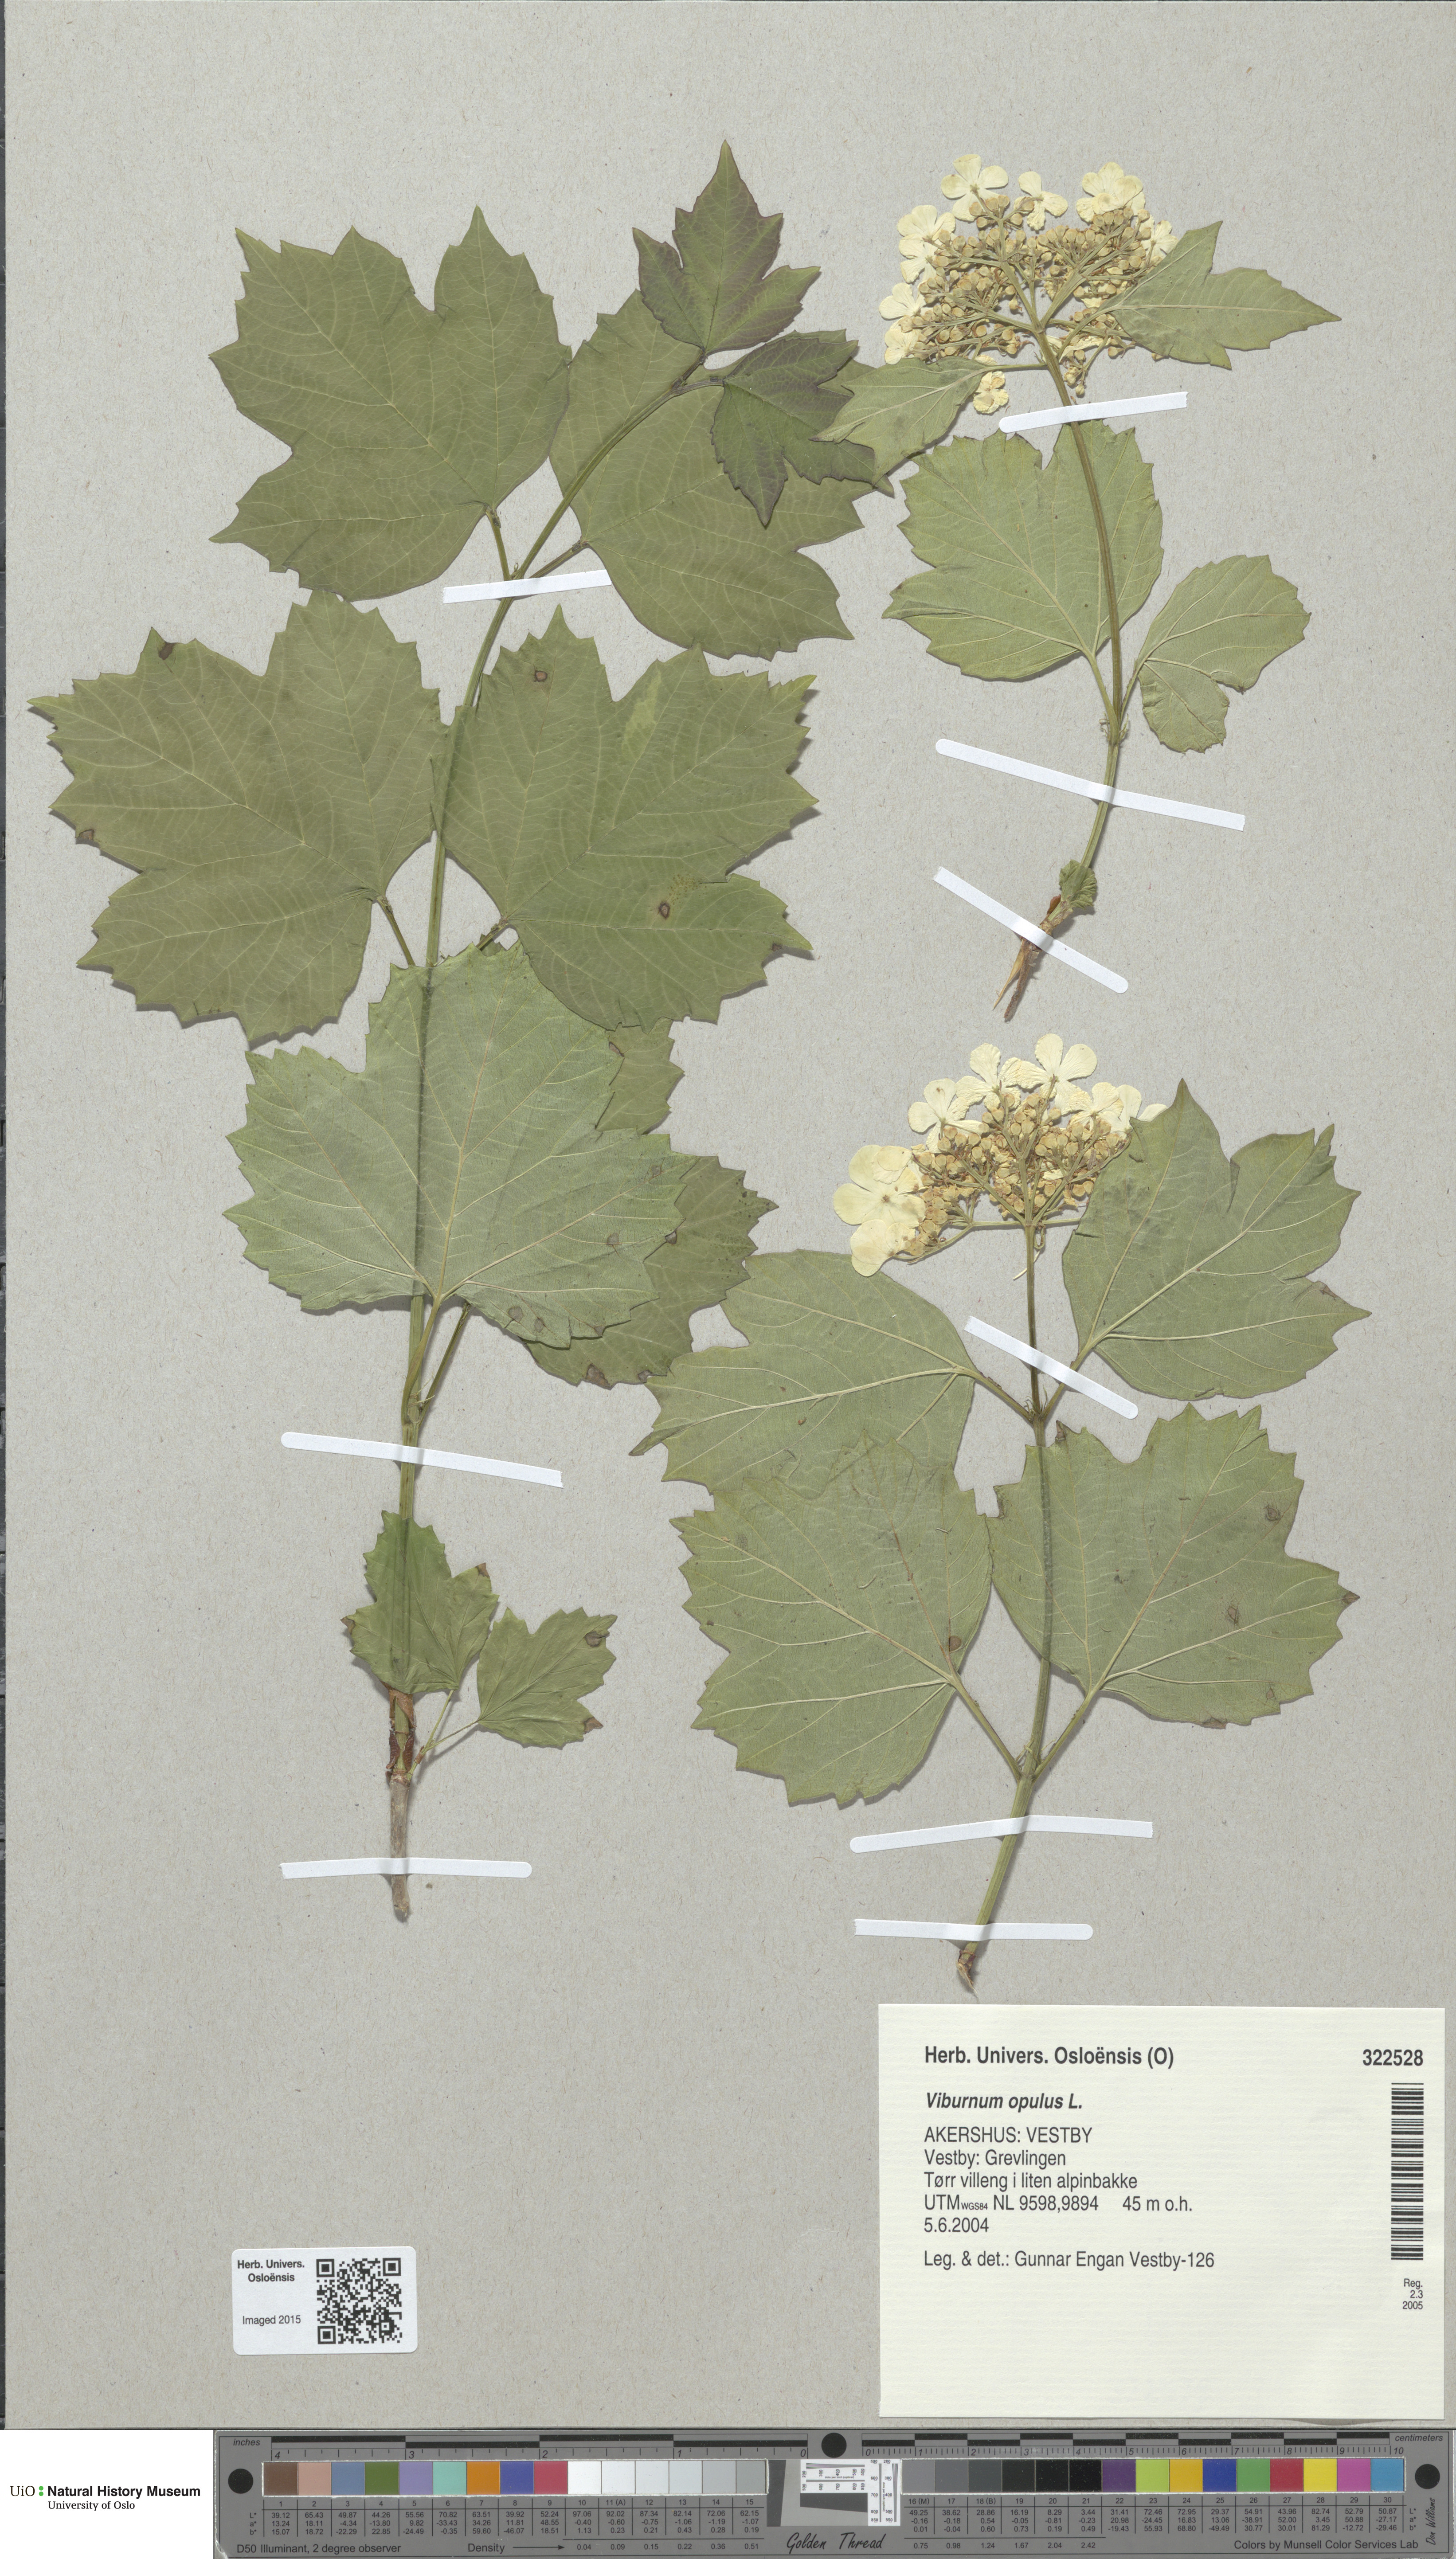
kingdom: Plantae
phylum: Tracheophyta
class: Magnoliopsida
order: Dipsacales
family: Viburnaceae
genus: Viburnum
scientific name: Viburnum opulus
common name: Guelder-rose
